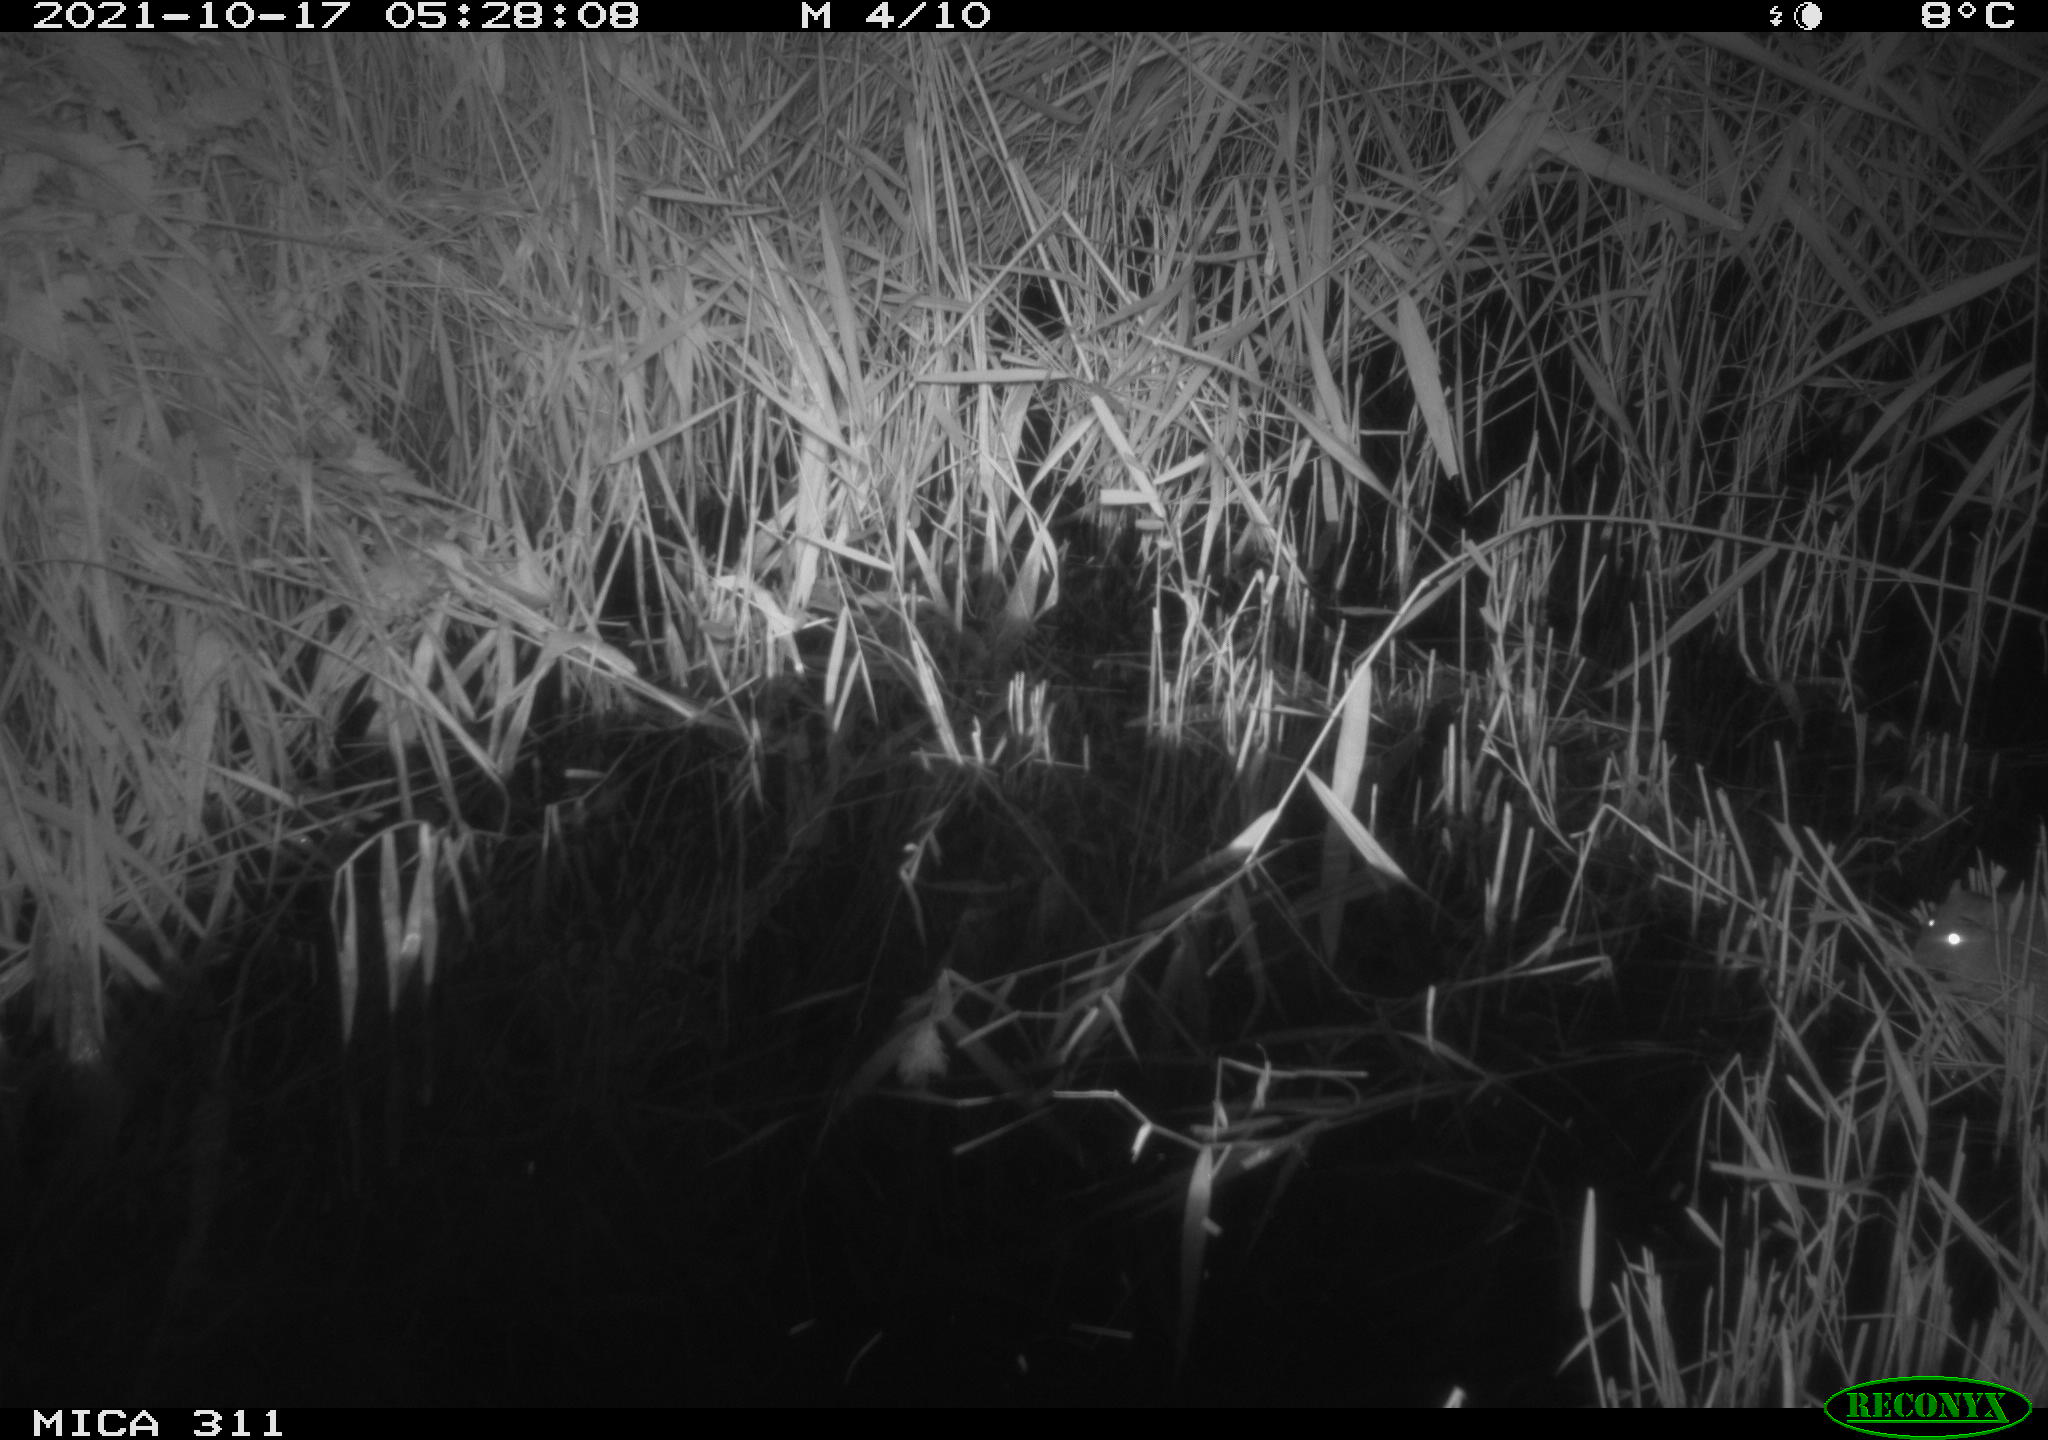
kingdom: Animalia
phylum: Chordata
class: Mammalia
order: Rodentia
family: Muridae
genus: Rattus
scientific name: Rattus norvegicus
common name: Brown rat
